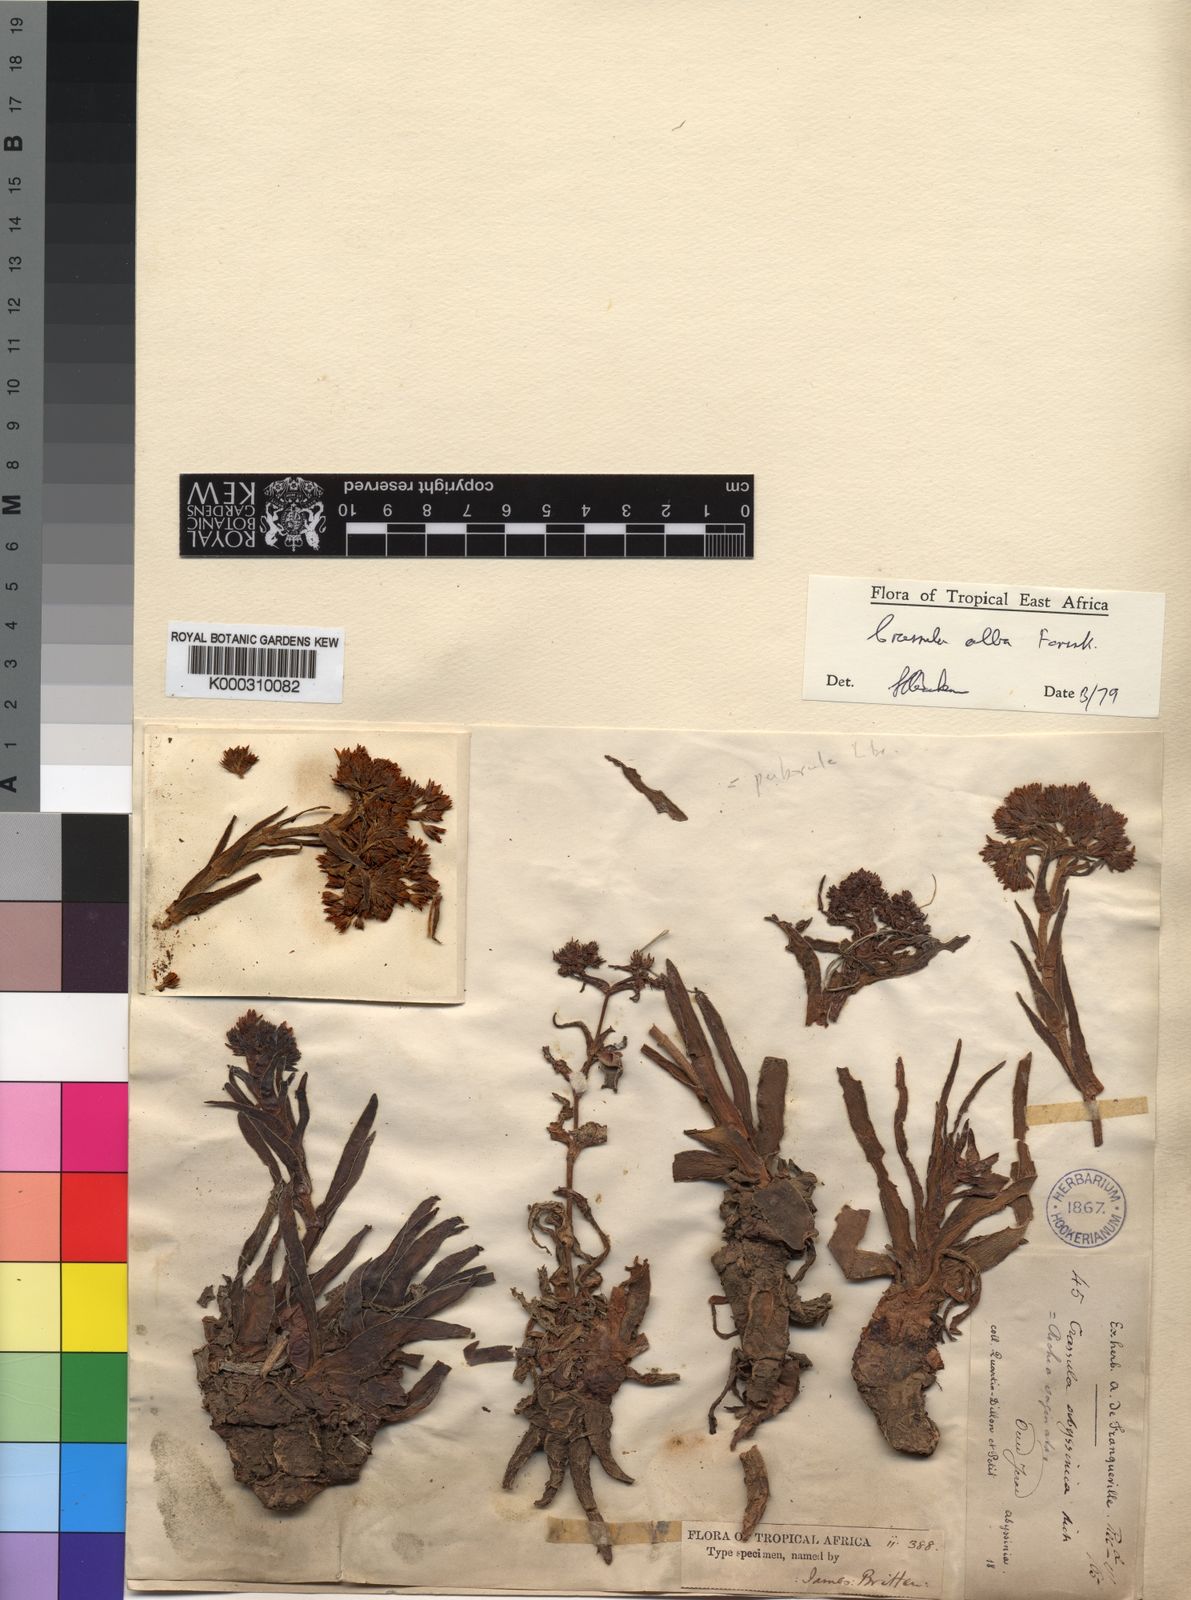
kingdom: Plantae
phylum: Tracheophyta
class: Magnoliopsida
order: Saxifragales
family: Crassulaceae
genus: Crassula
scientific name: Crassula alba
